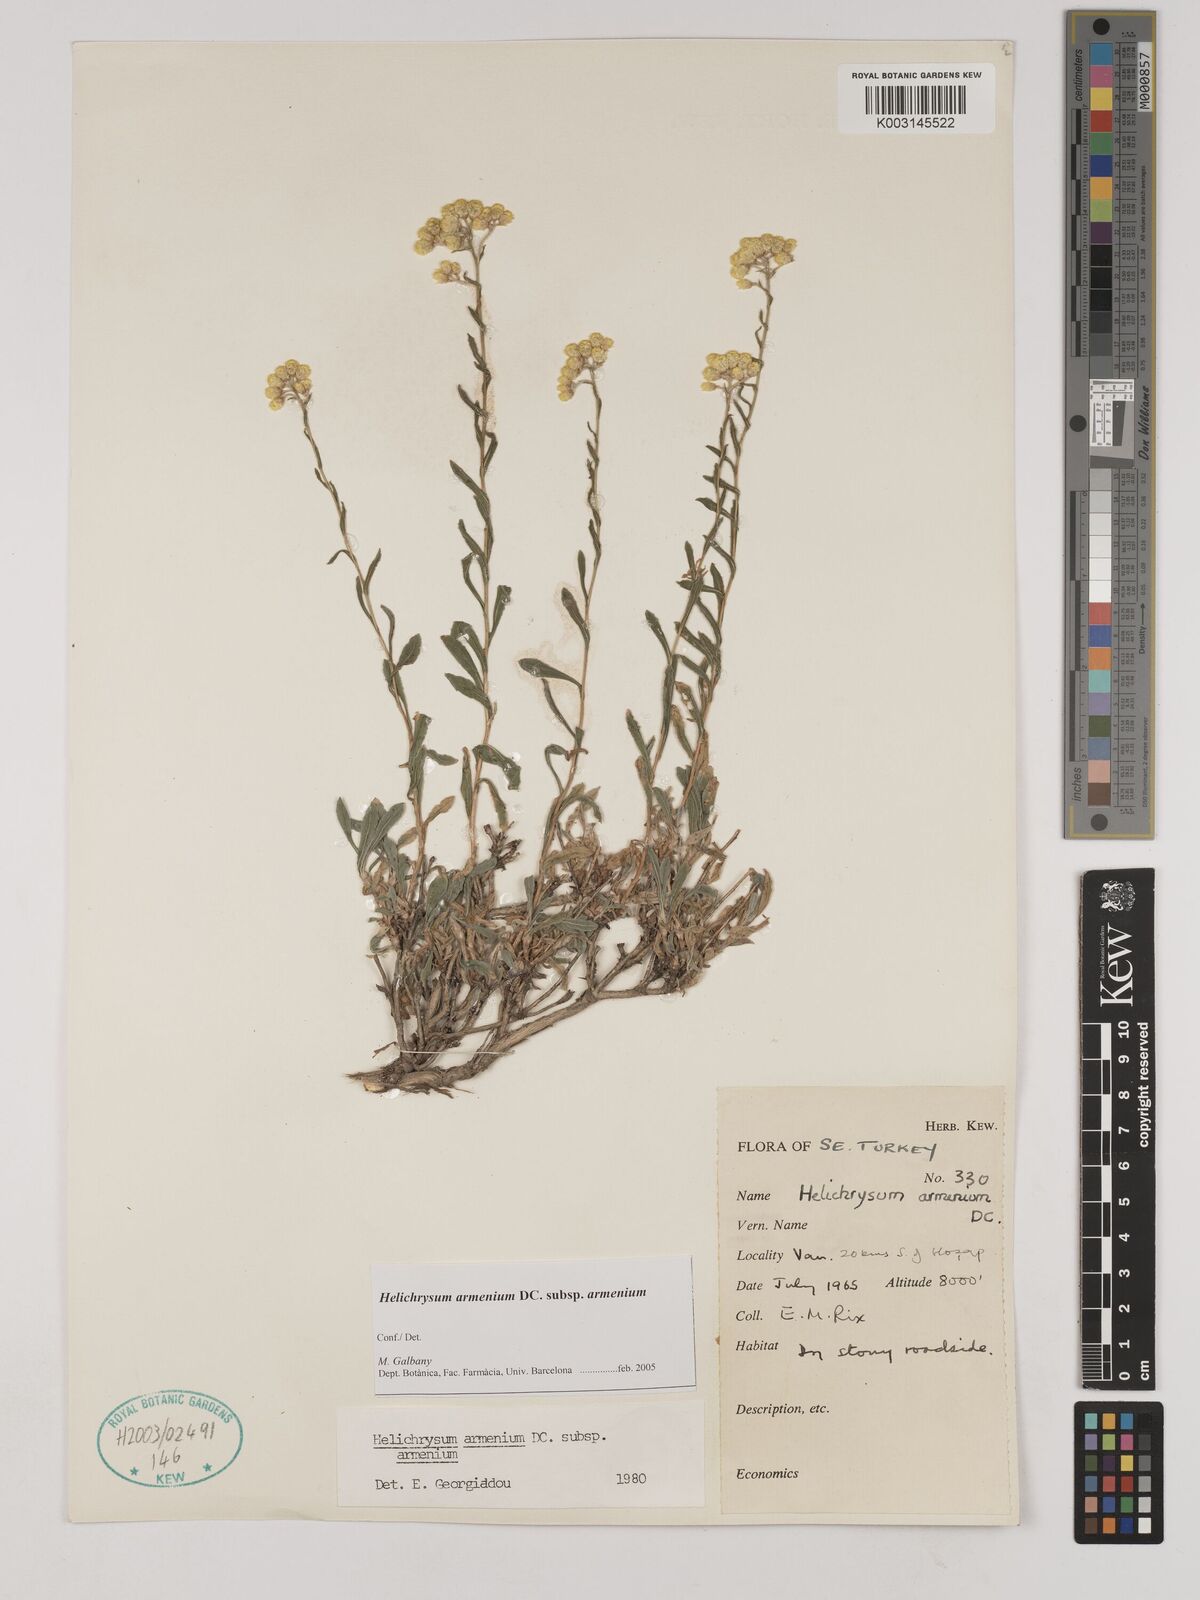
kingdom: Plantae
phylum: Tracheophyta
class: Magnoliopsida
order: Asterales
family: Asteraceae
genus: Helichrysum
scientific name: Helichrysum armenium
